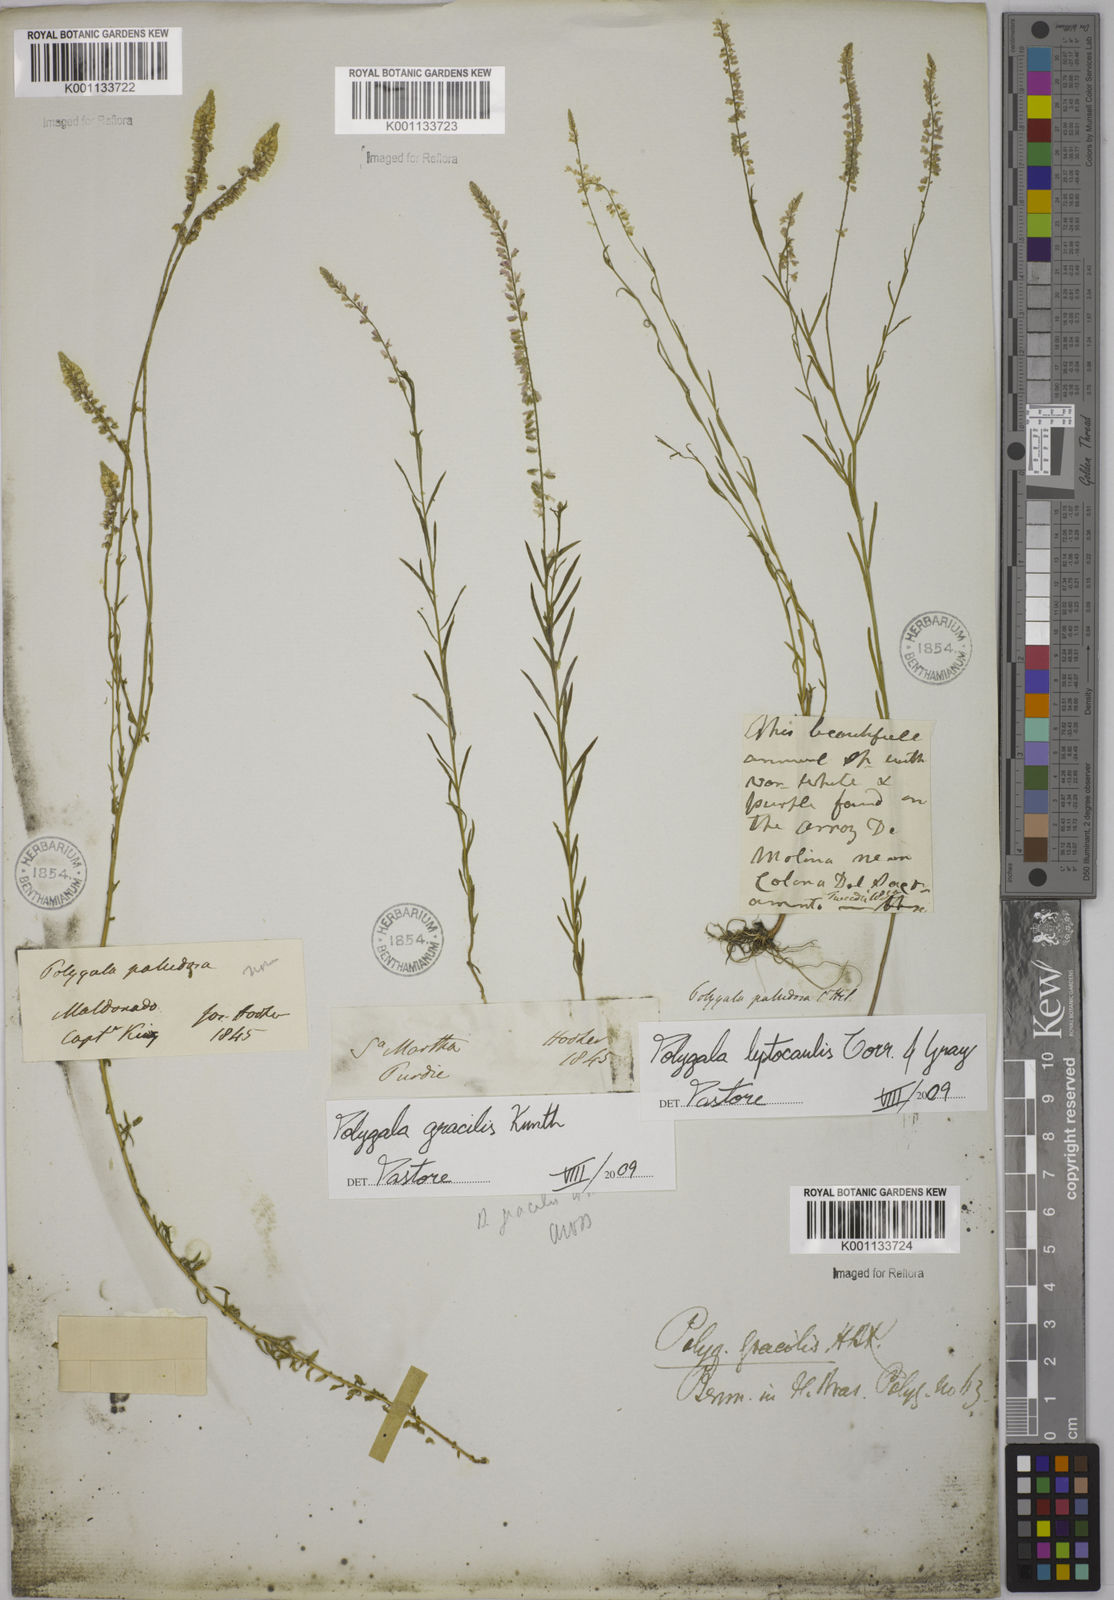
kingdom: Plantae
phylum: Tracheophyta
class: Magnoliopsida
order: Fabales
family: Polygalaceae
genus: Polygala
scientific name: Polygala tenella
